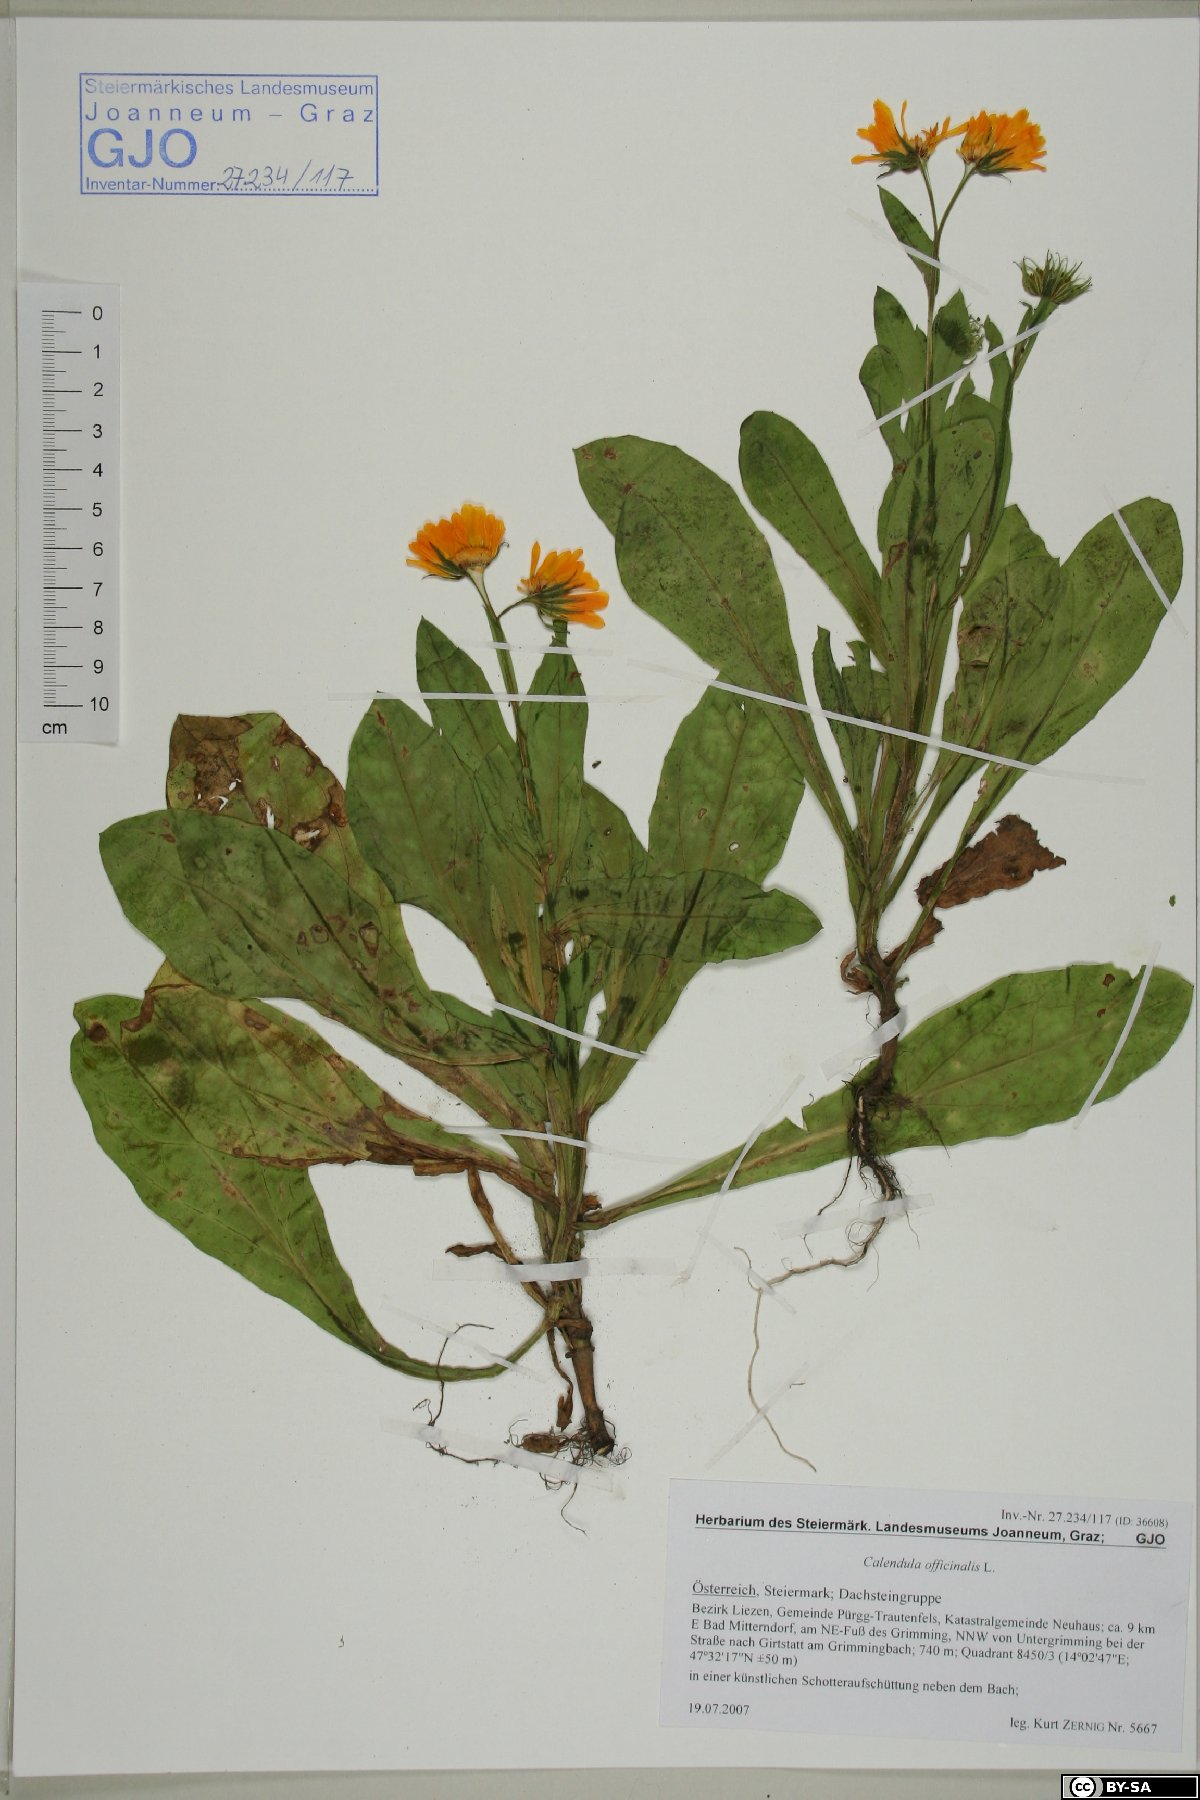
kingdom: Plantae
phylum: Tracheophyta
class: Magnoliopsida
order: Asterales
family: Asteraceae
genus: Calendula
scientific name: Calendula officinalis
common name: Pot marigold
